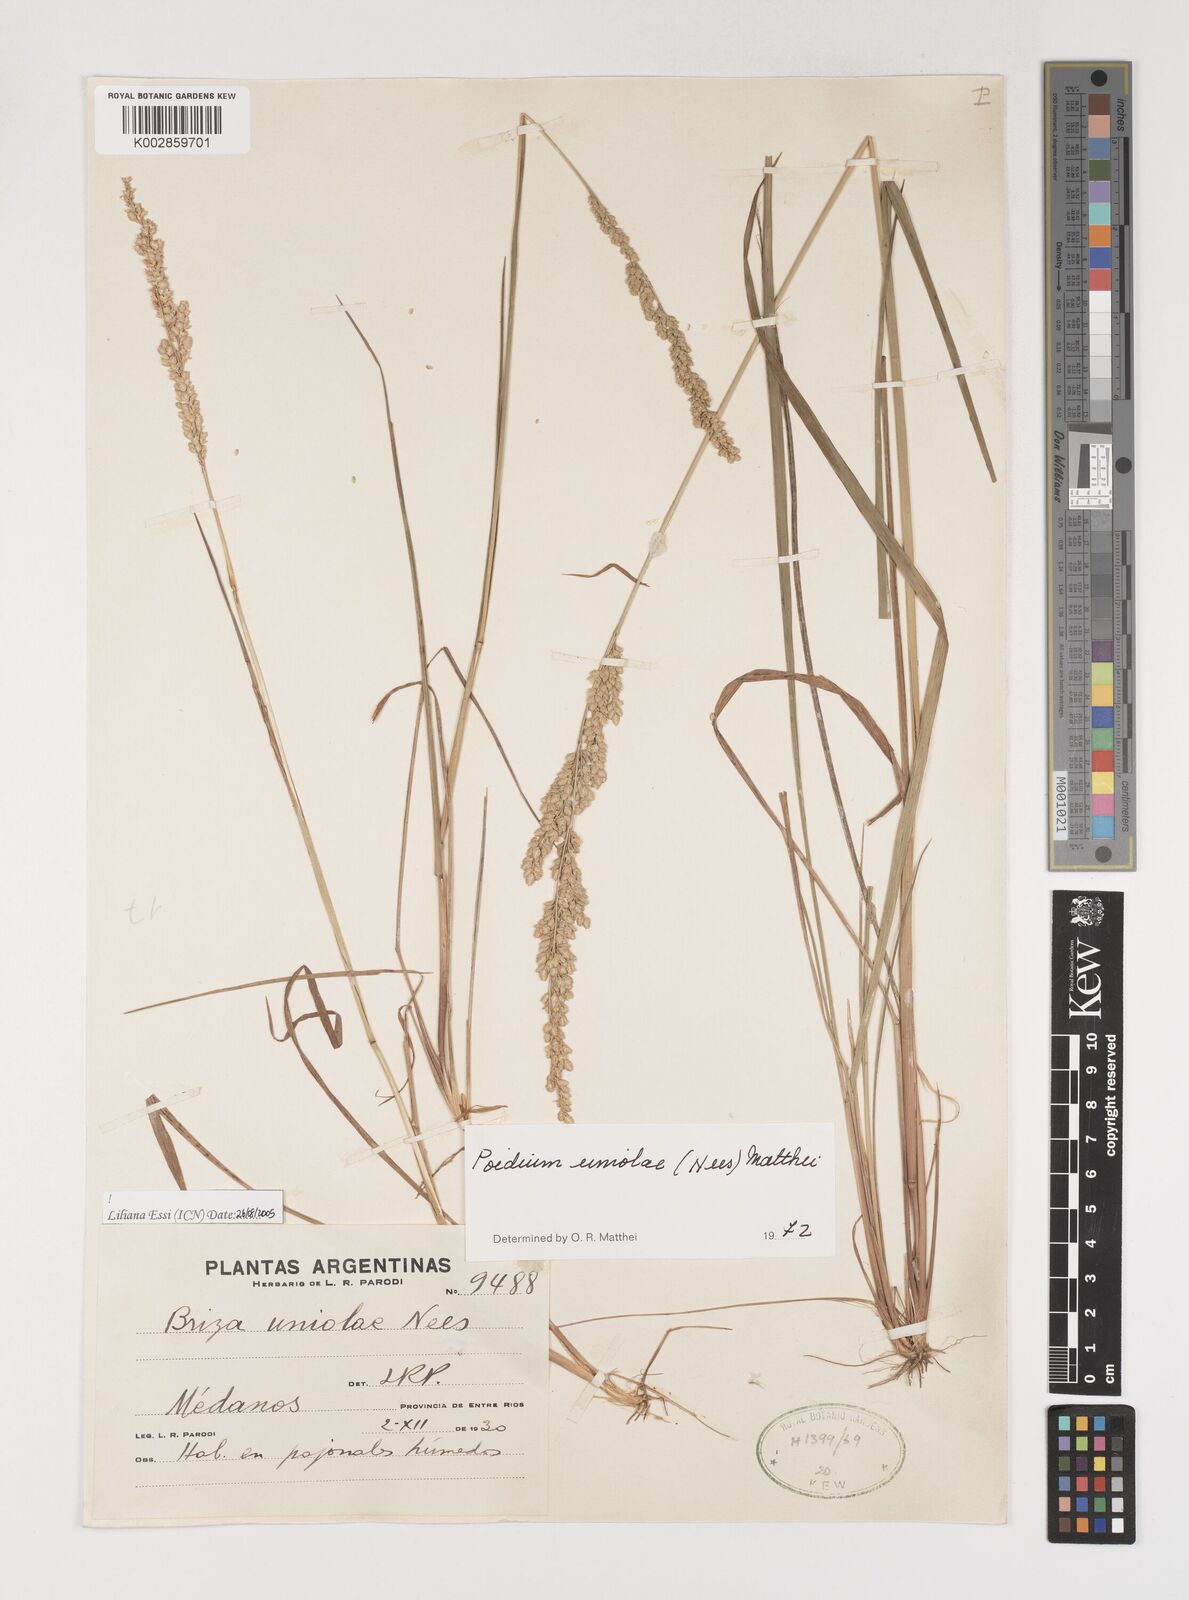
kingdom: Plantae
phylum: Tracheophyta
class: Liliopsida
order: Poales
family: Poaceae
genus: Poidium
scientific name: Poidium uniolae
